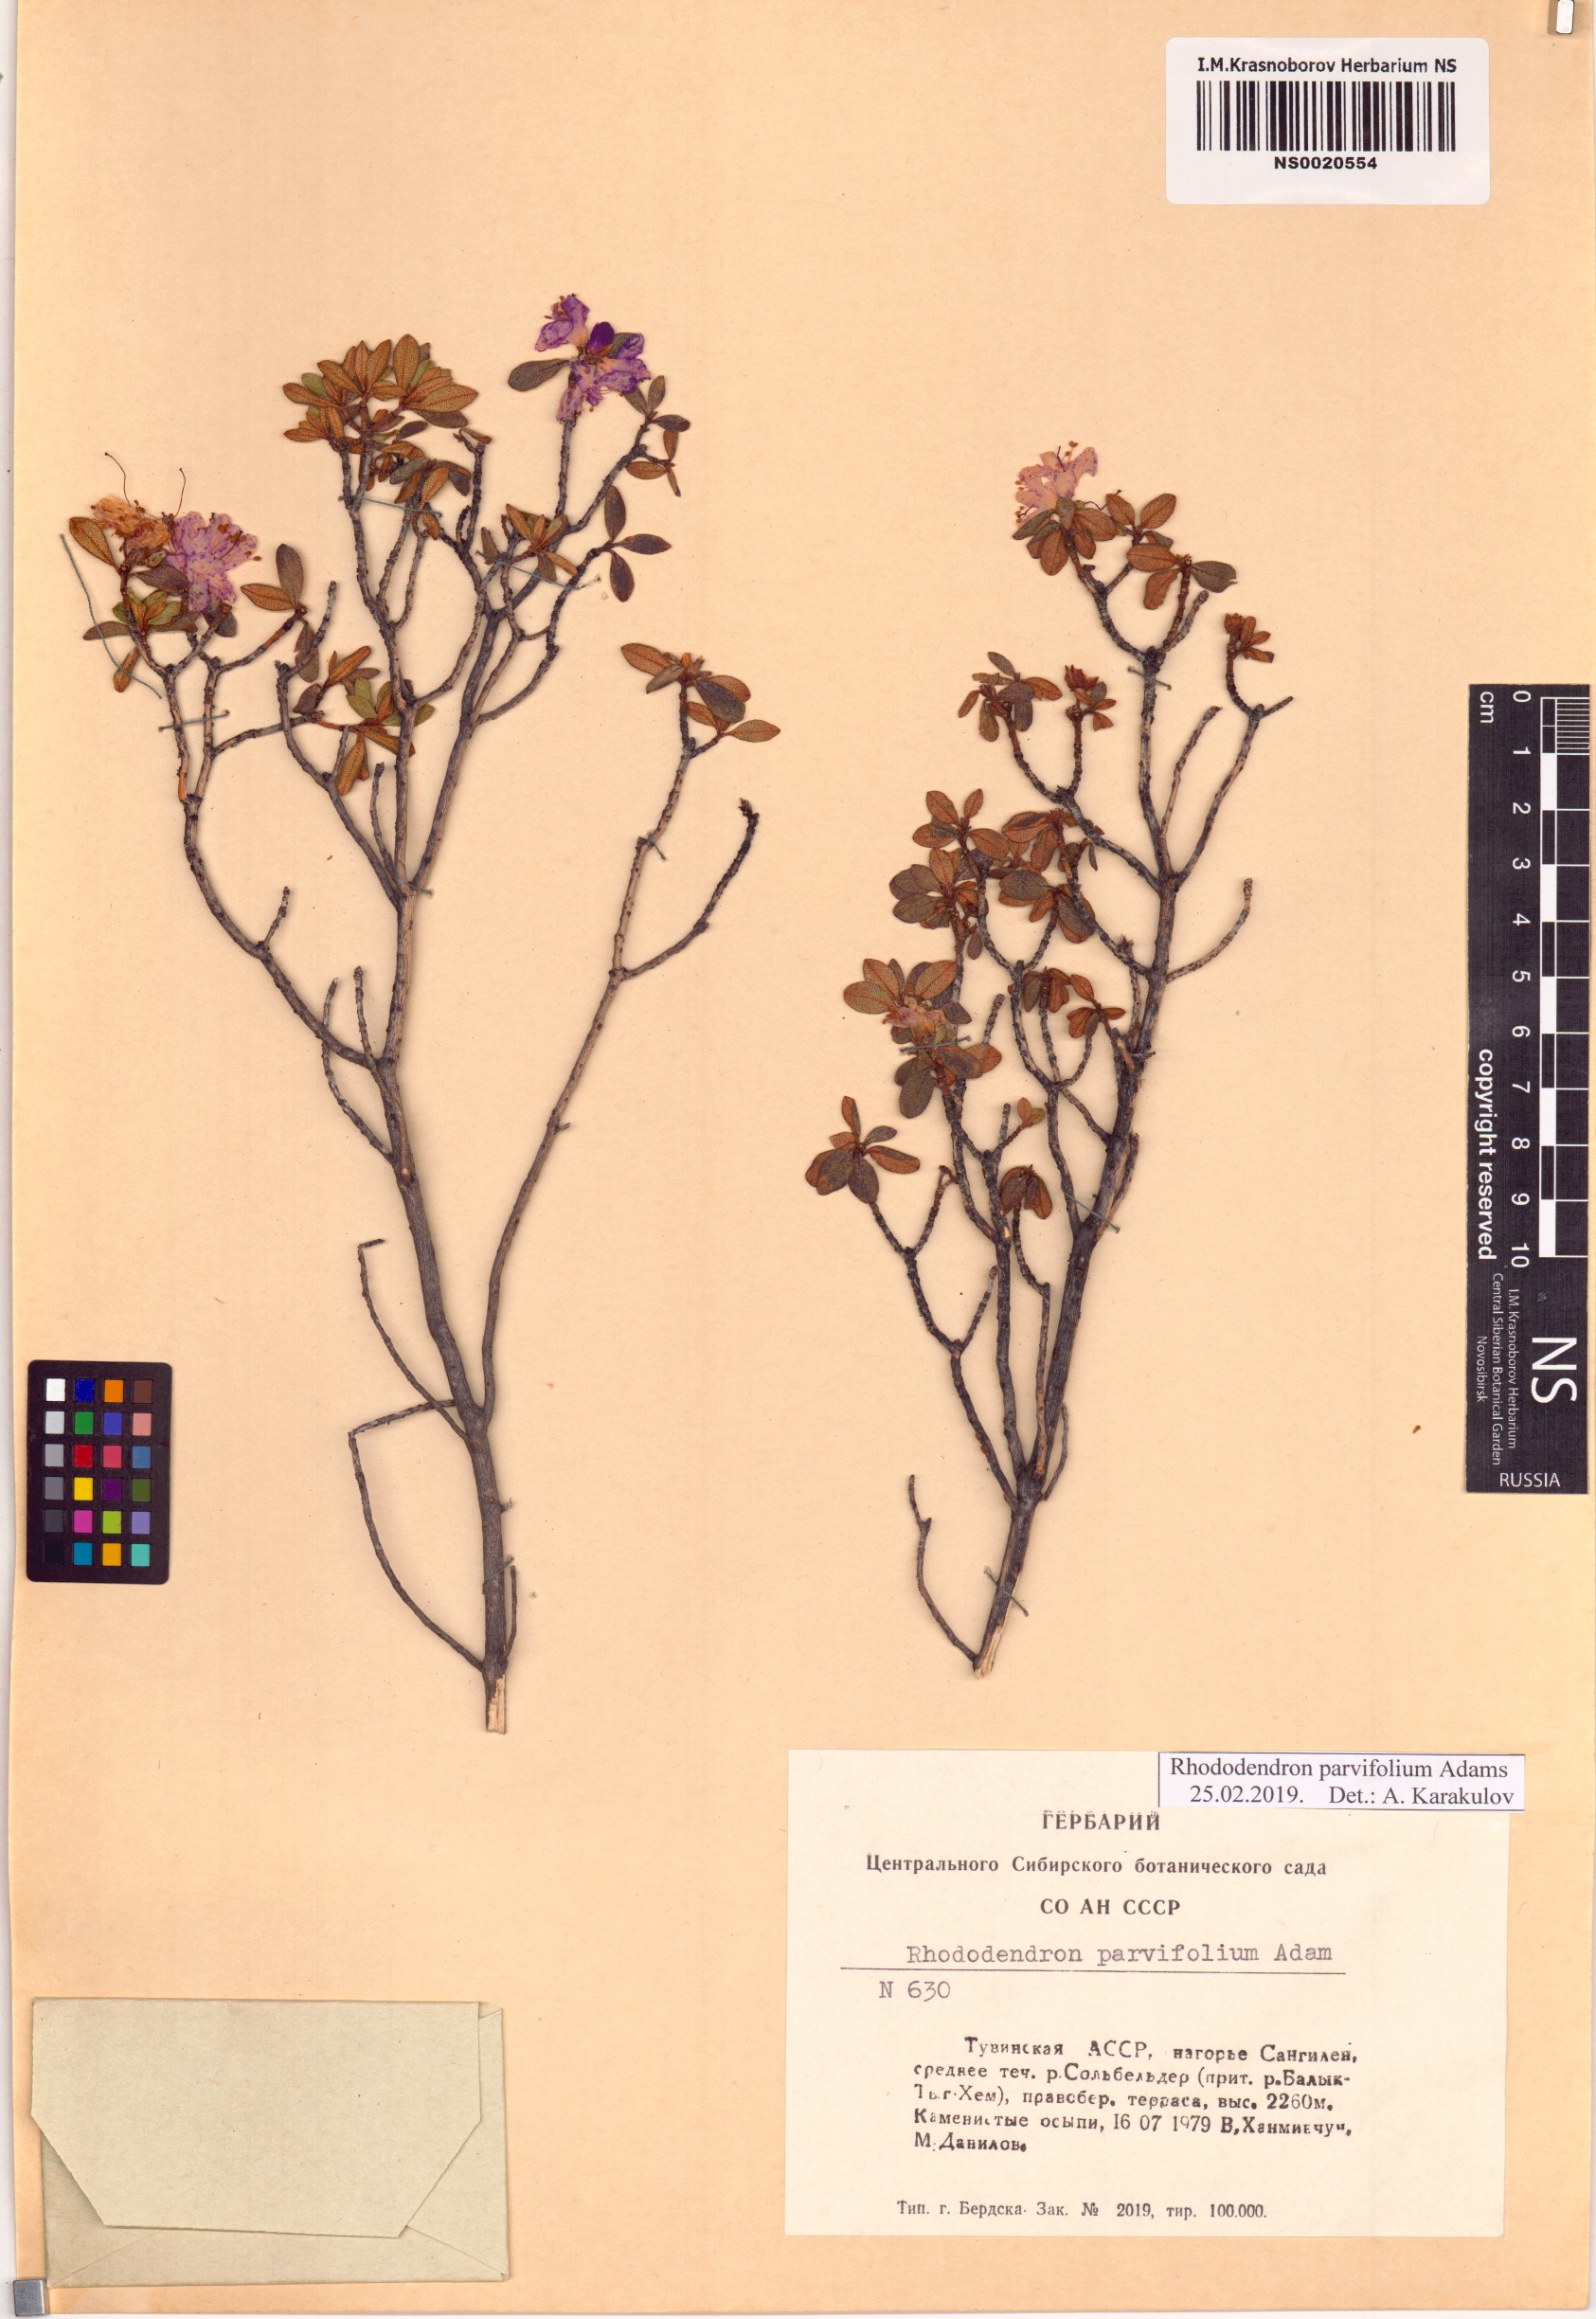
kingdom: Plantae
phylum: Tracheophyta
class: Magnoliopsida
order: Ericales
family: Ericaceae
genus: Rhododendron
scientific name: Rhododendron parvifolium
